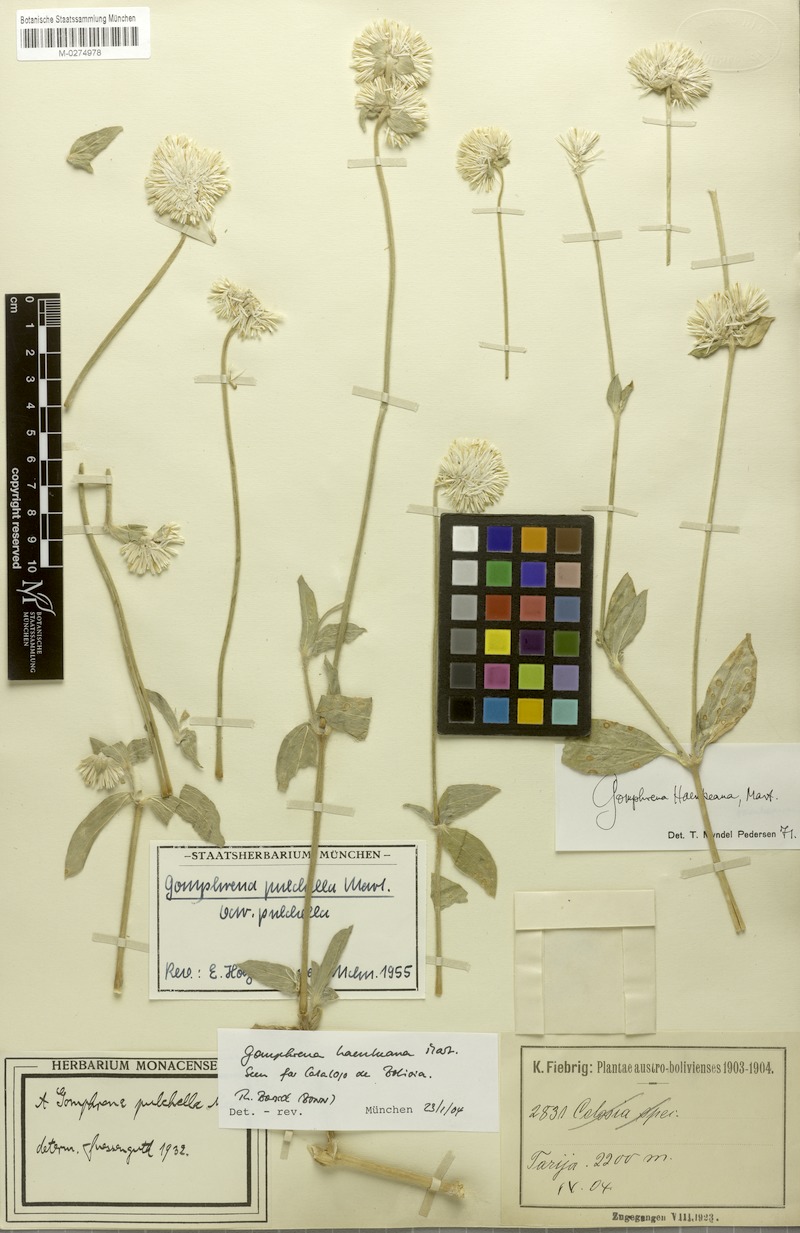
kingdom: Plantae
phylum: Tracheophyta
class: Magnoliopsida
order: Caryophyllales
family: Amaranthaceae
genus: Gomphrena
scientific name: Gomphrena haenkeana
